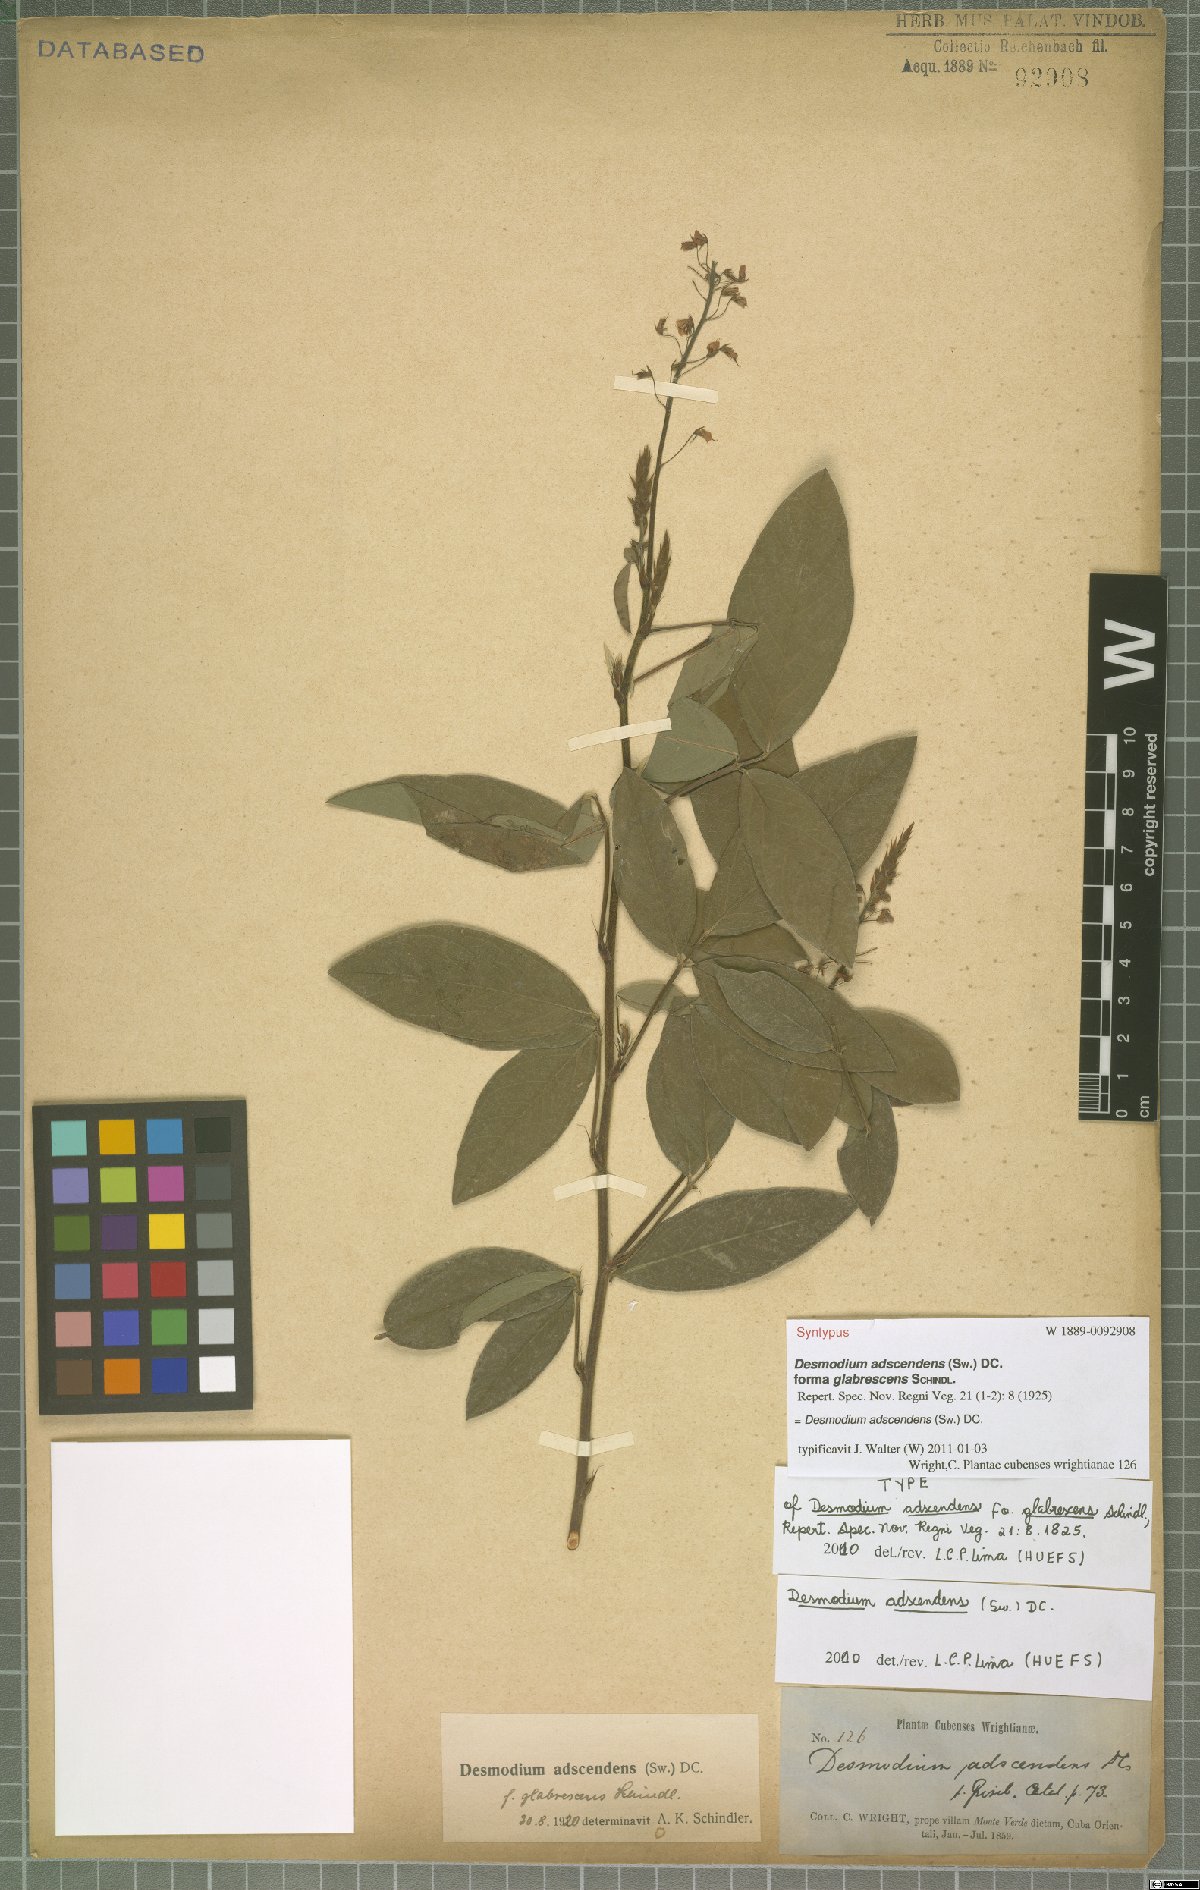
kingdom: Plantae
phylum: Tracheophyta
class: Magnoliopsida
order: Fabales
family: Fabaceae
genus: Grona
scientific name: Grona adscendens
